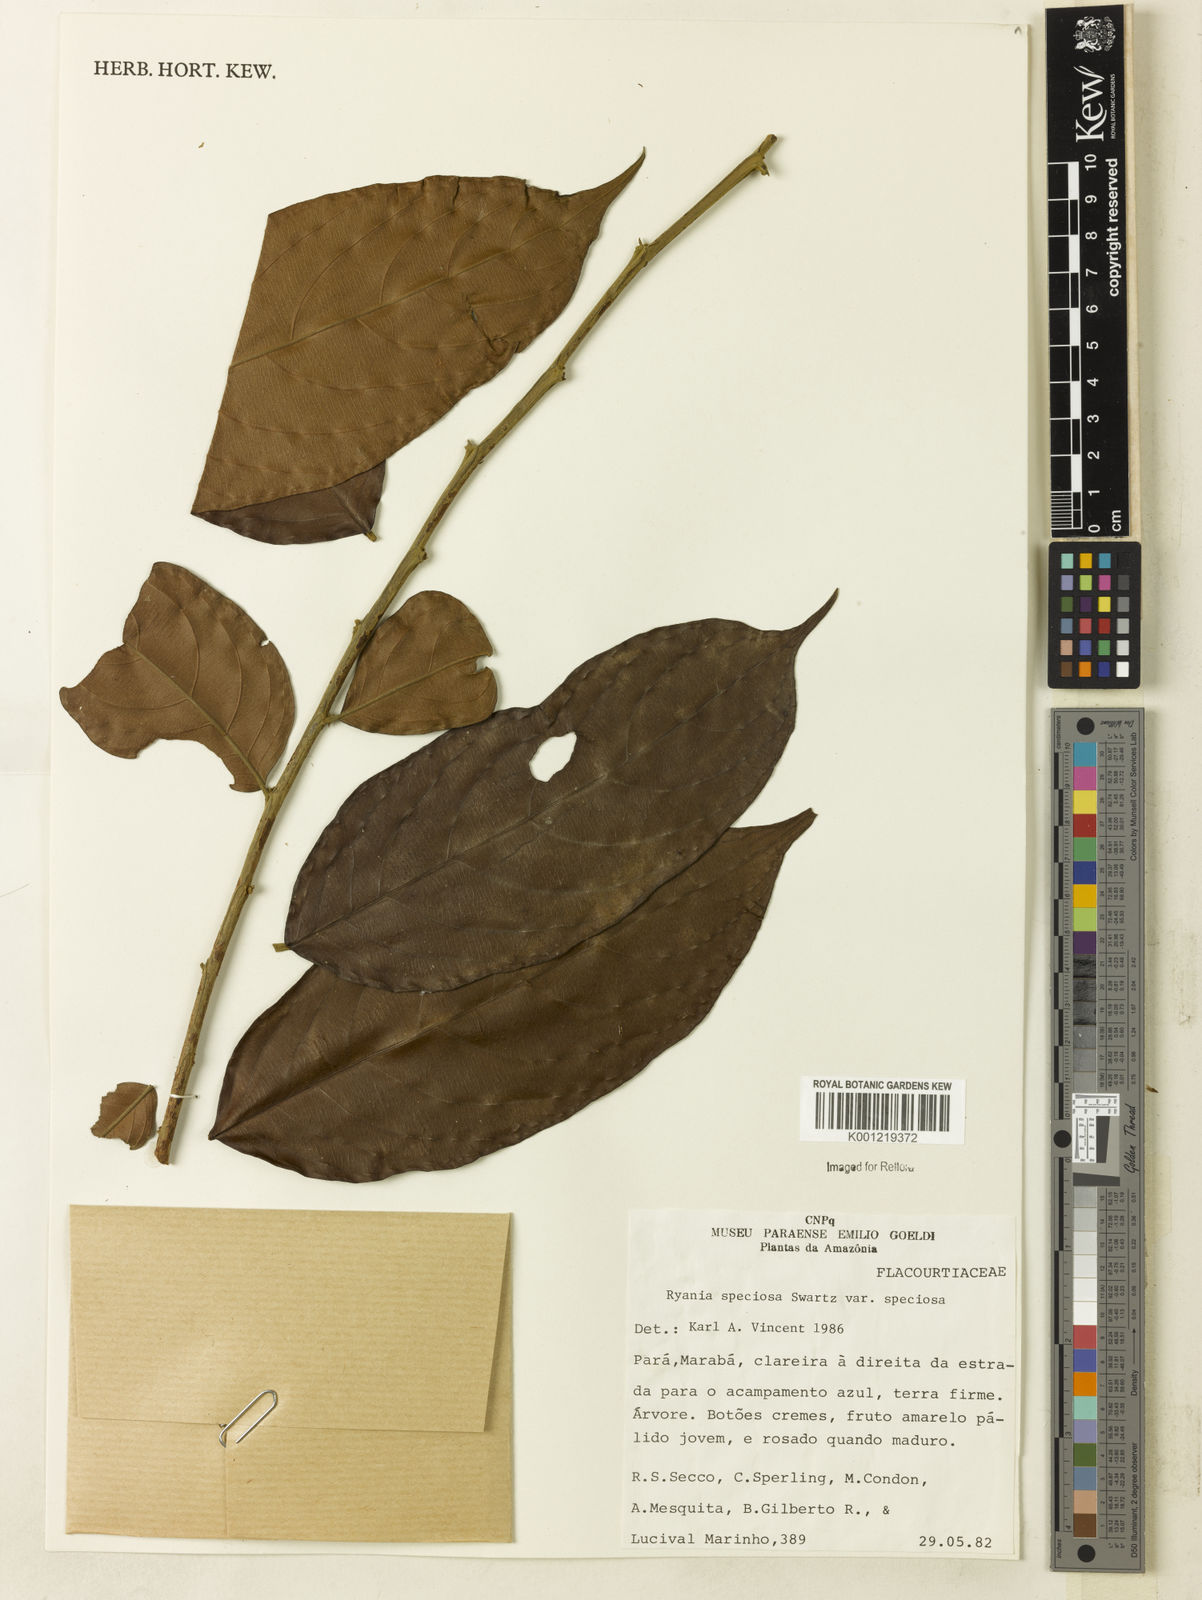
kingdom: Plantae
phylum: Tracheophyta
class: Magnoliopsida
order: Malpighiales
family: Salicaceae
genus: Ryania
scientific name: Ryania speciosa
